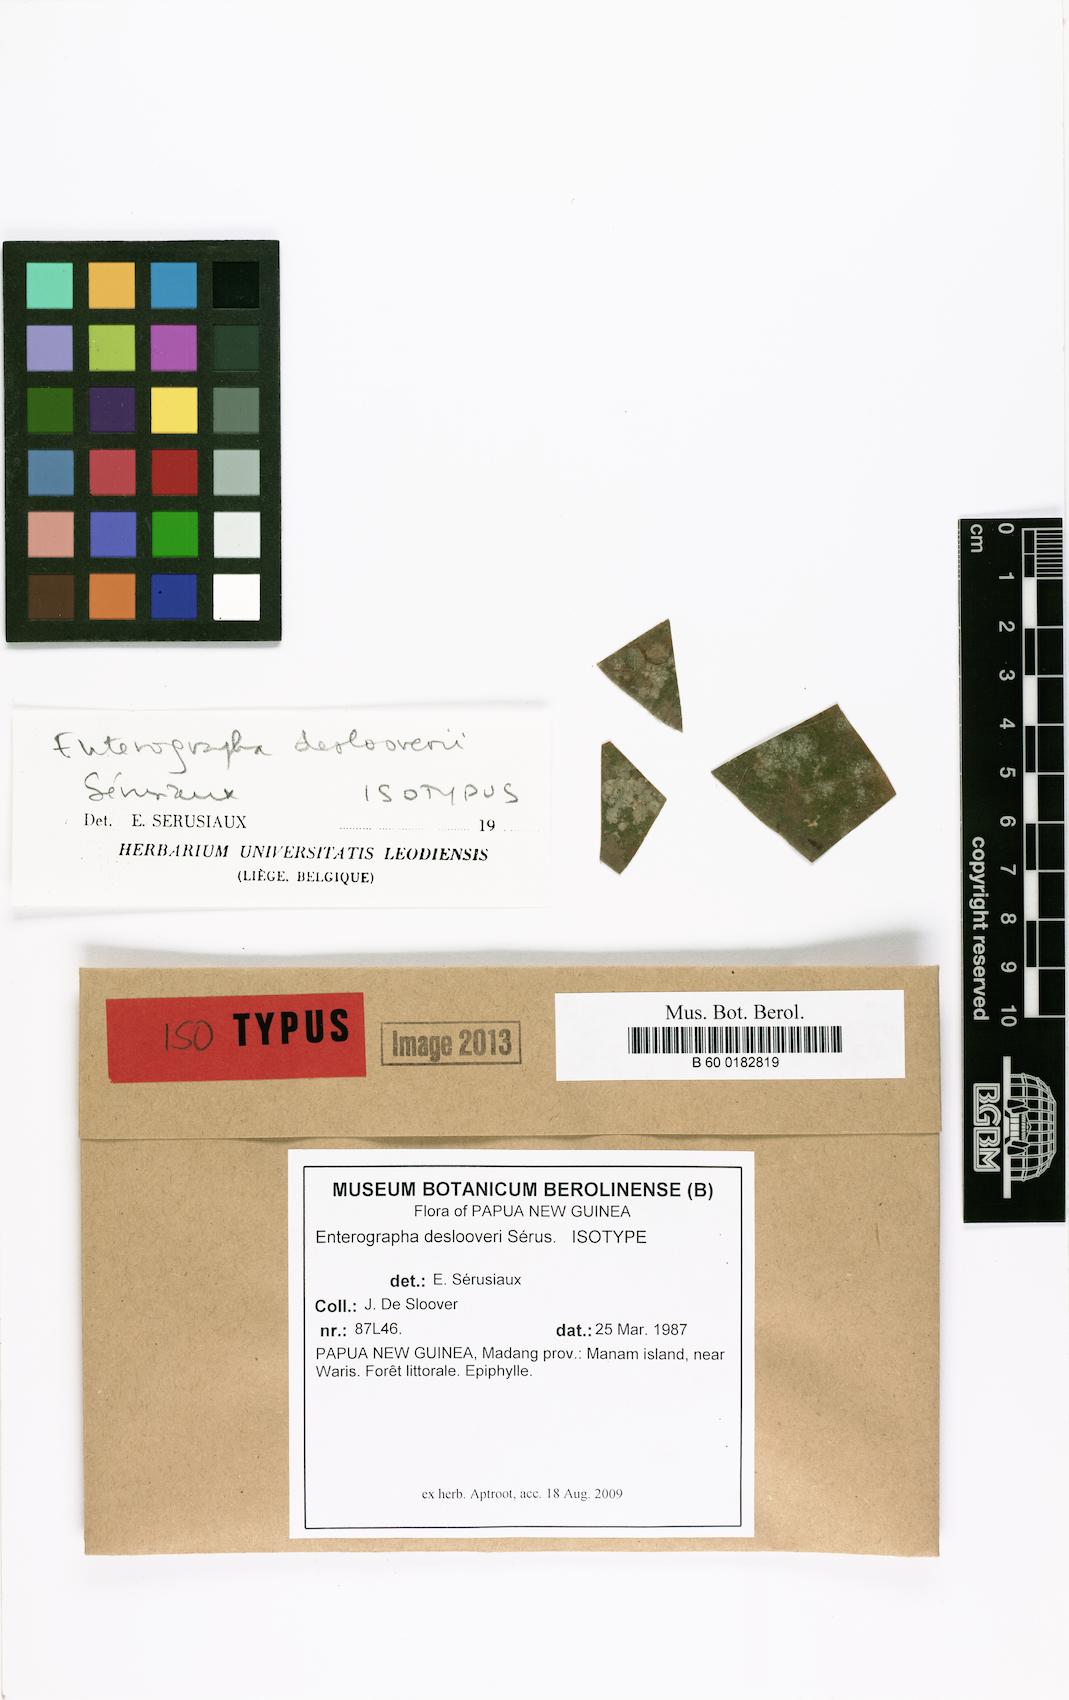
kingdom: Fungi
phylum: Ascomycota
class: Arthoniomycetes
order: Arthoniales
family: Roccellaceae
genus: Enterographa
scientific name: Enterographa deslooveri
